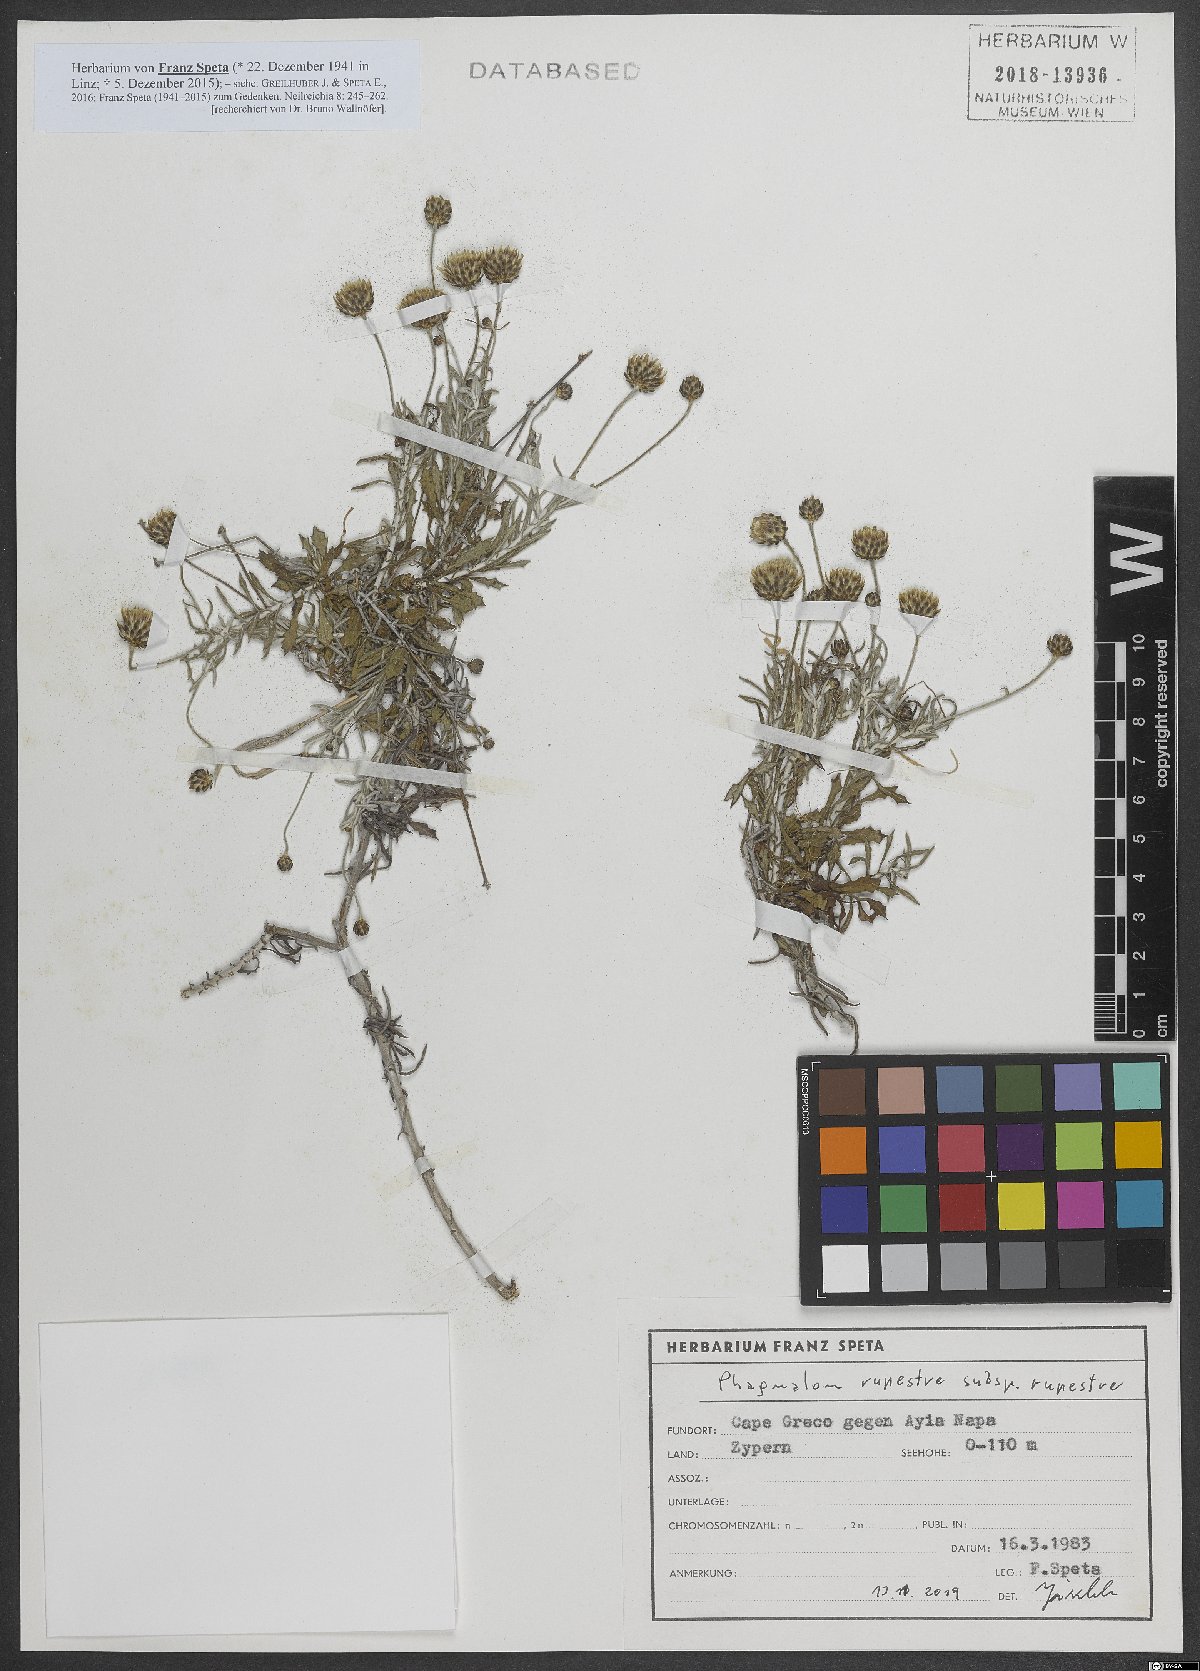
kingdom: Plantae
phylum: Tracheophyta
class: Magnoliopsida
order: Asterales
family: Asteraceae
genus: Phagnalon
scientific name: Phagnalon rupestre
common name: Rock phagnalon
